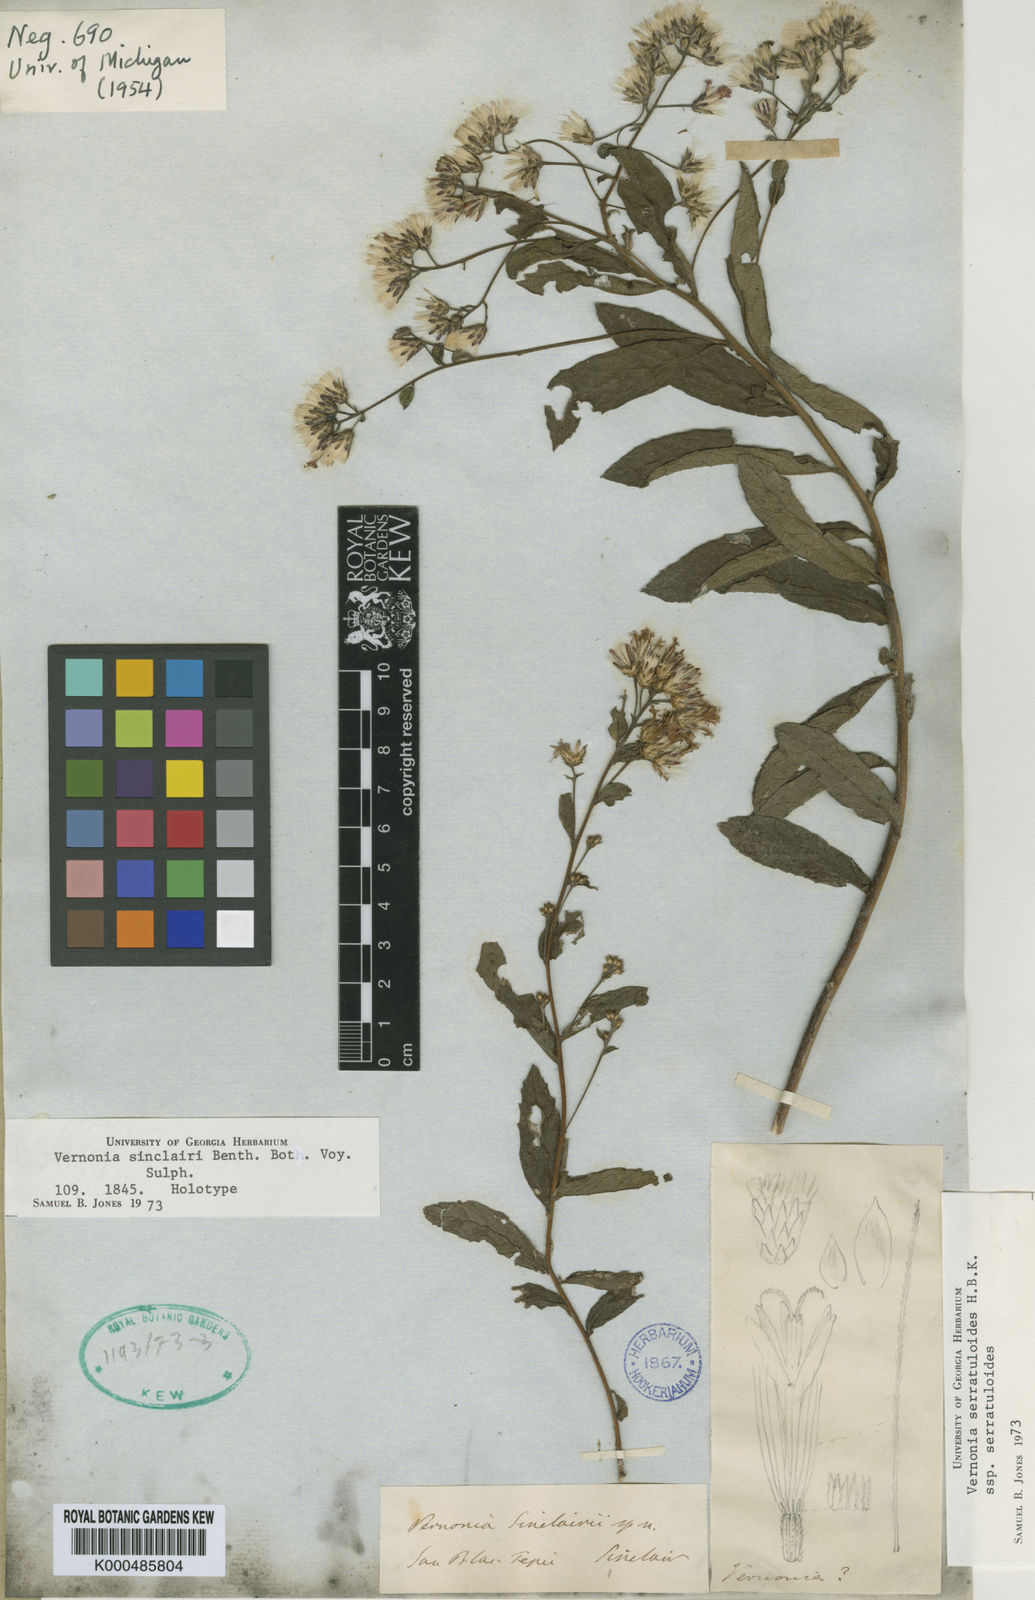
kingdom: Plantae
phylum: Tracheophyta
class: Magnoliopsida
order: Asterales
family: Asteraceae
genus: Vernonanthura
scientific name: Vernonanthura sinclairii
